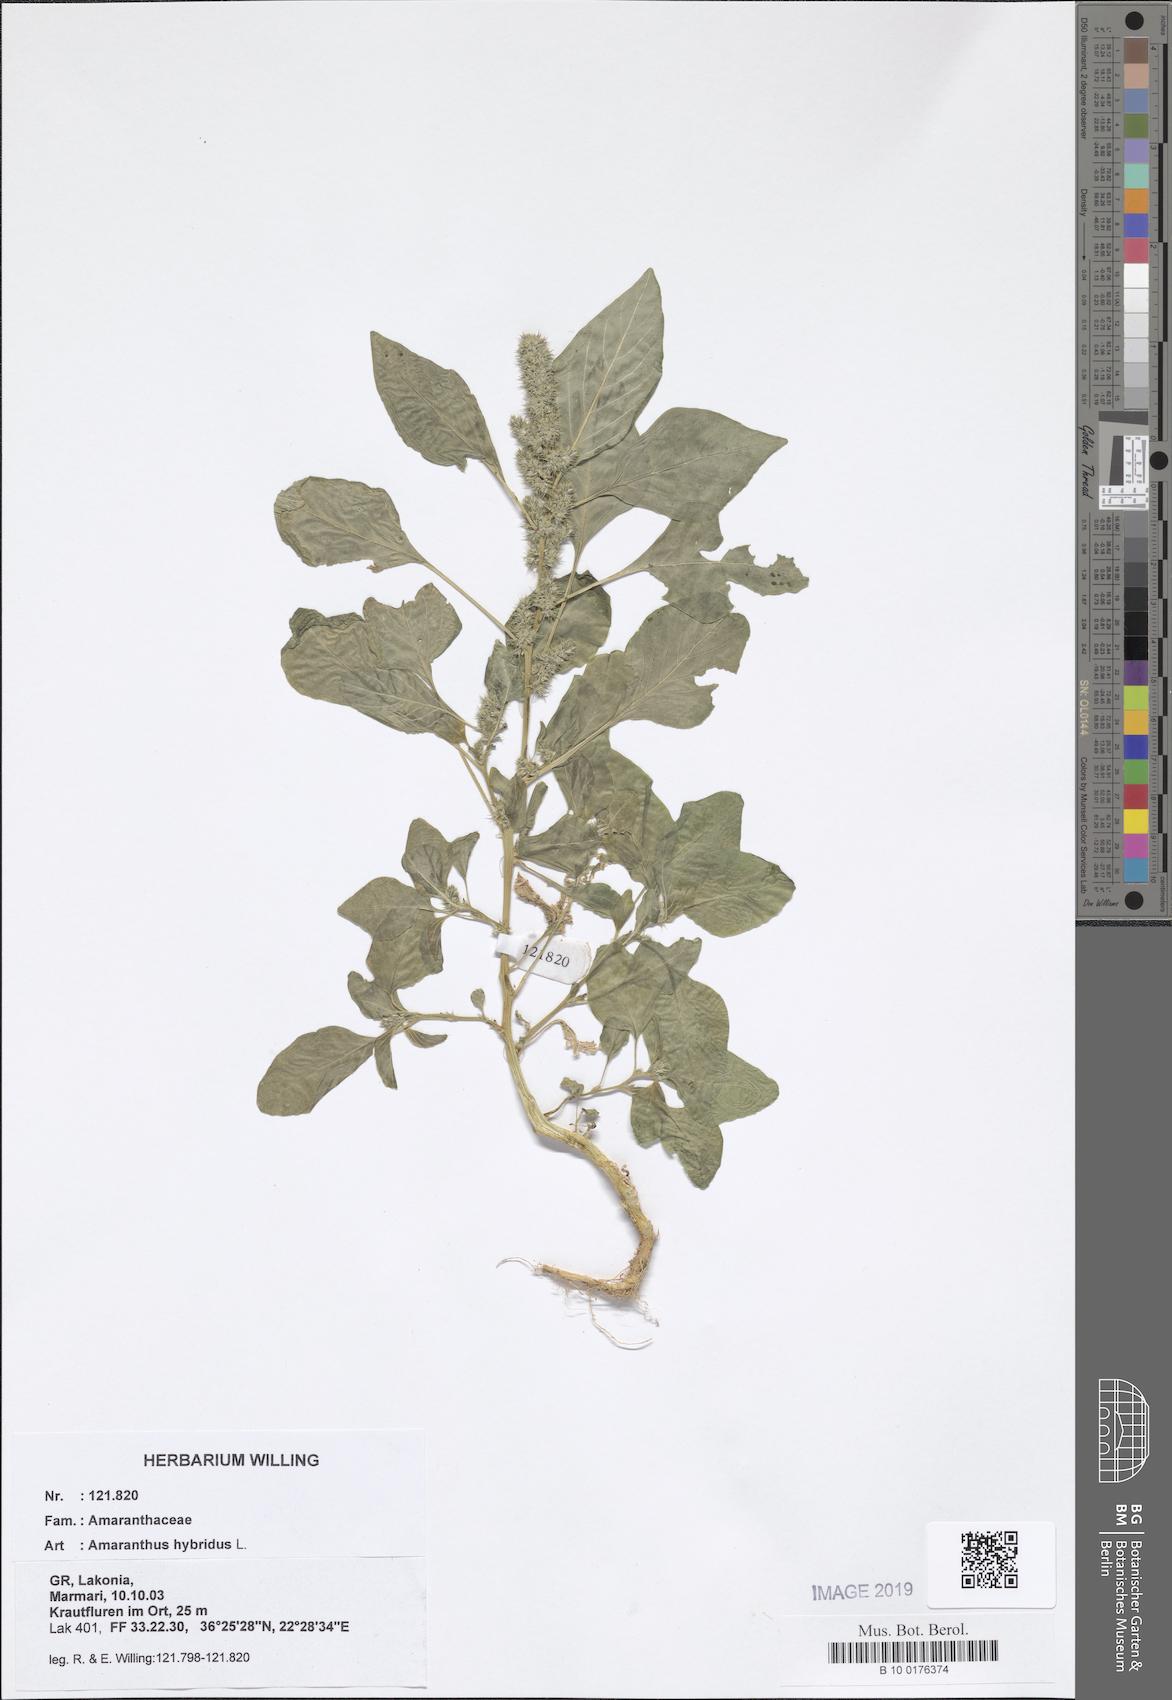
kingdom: Plantae
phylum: Tracheophyta
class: Magnoliopsida
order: Caryophyllales
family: Amaranthaceae
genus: Amaranthus
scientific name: Amaranthus hybridus
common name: Green amaranth
